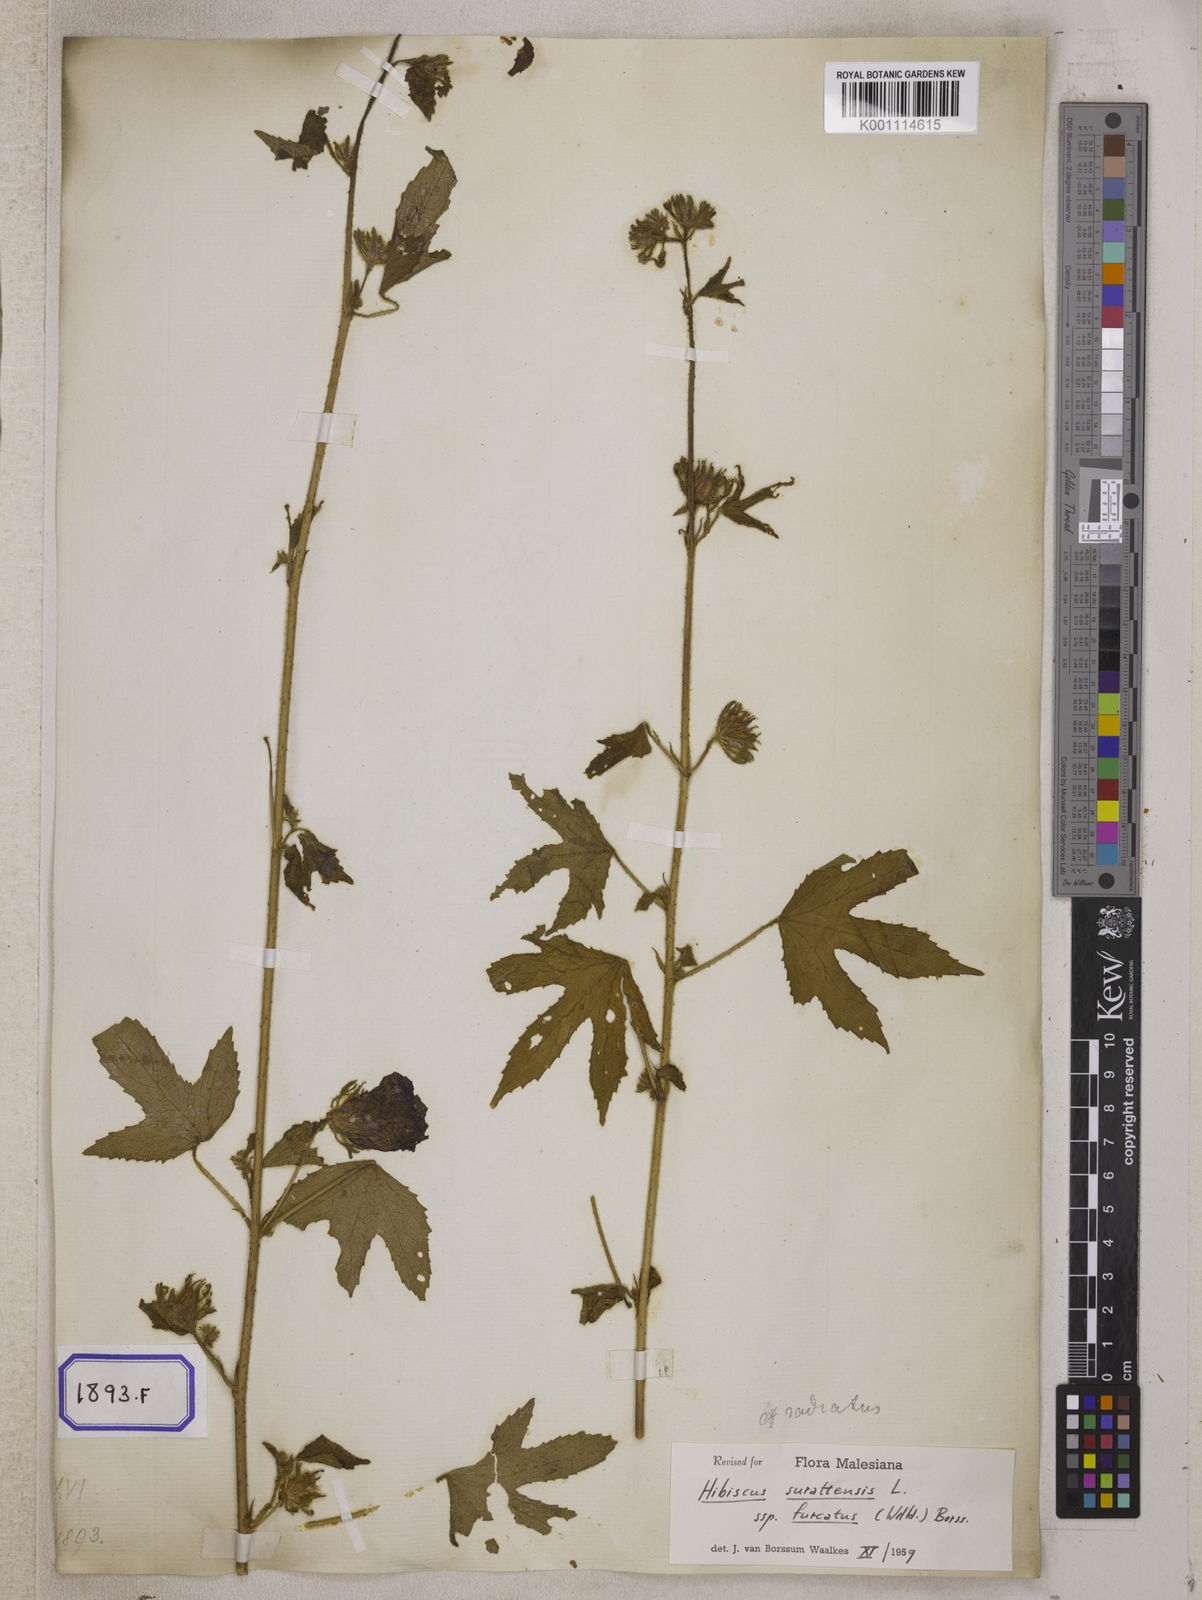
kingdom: Plantae
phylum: Tracheophyta
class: Magnoliopsida
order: Malvales
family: Malvaceae
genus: Hibiscus
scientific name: Hibiscus surattensis
